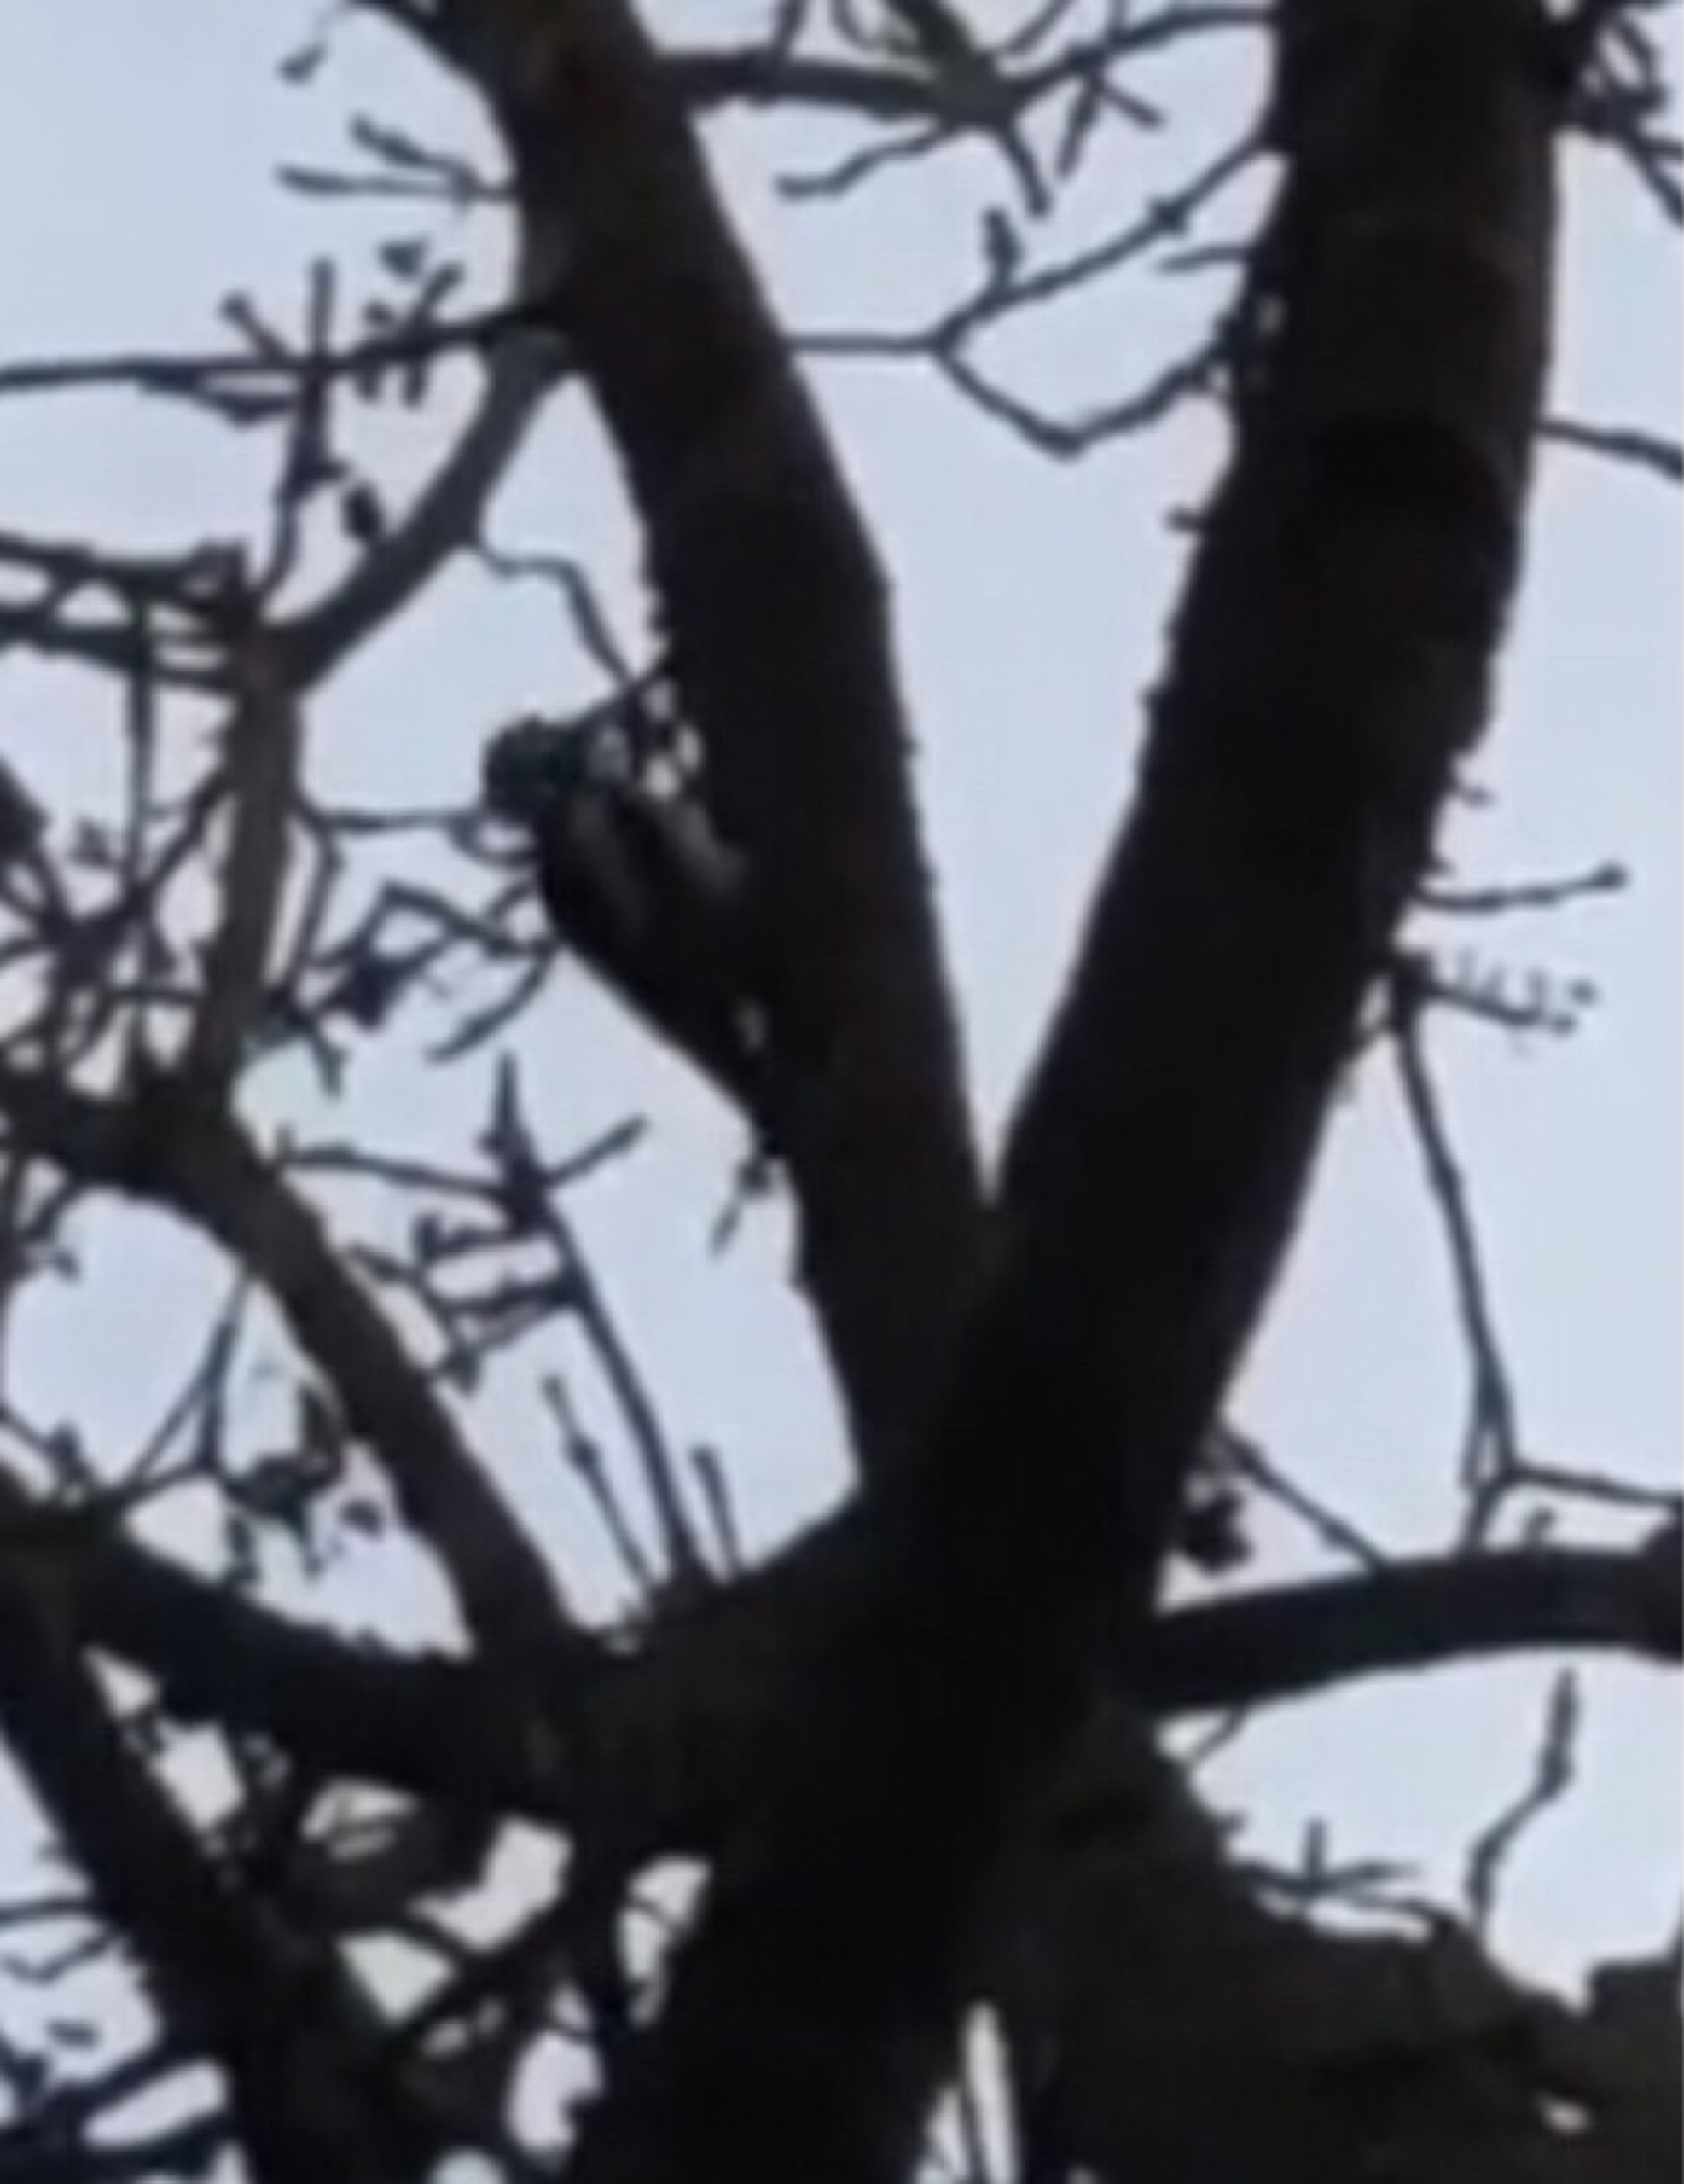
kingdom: Animalia
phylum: Chordata
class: Aves
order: Piciformes
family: Picidae
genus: Dendrocopos
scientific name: Dendrocopos major
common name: Stor flagspætte
